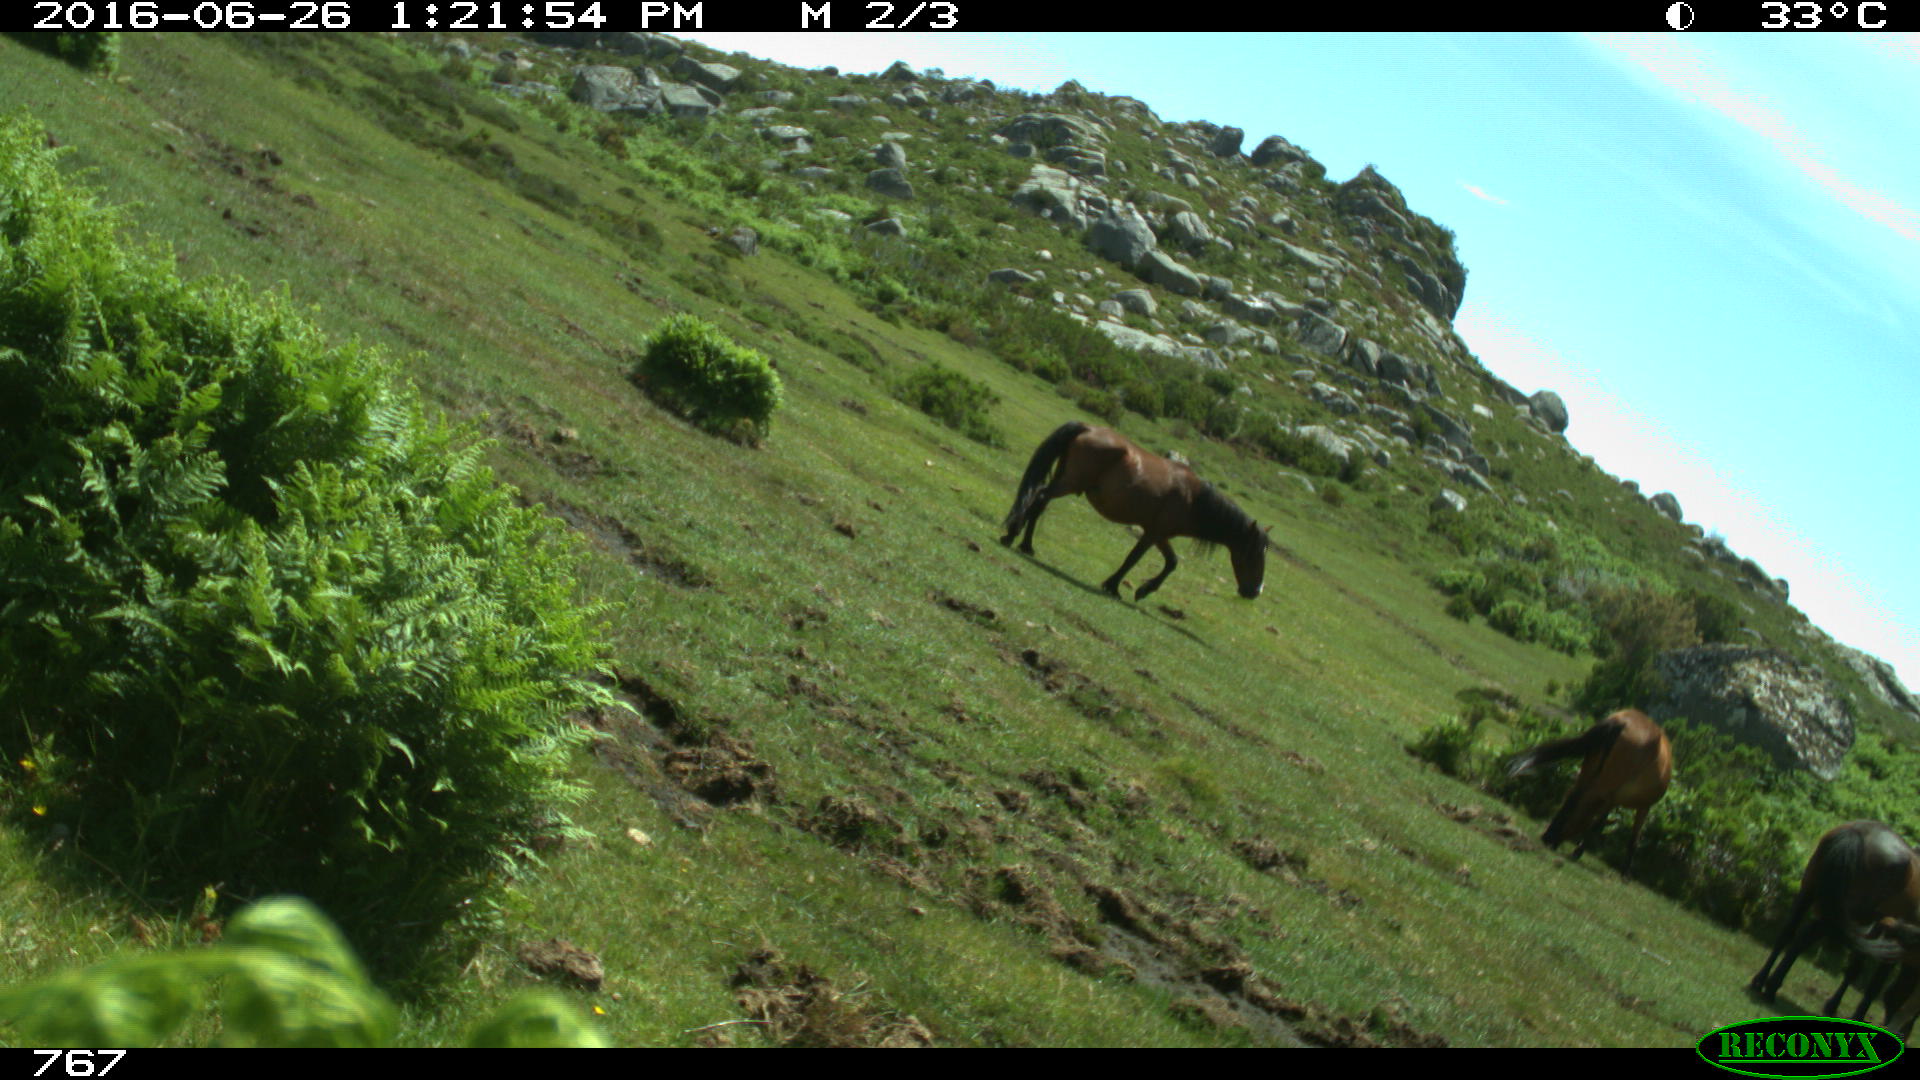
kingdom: Animalia
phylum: Chordata
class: Mammalia
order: Perissodactyla
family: Equidae
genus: Equus
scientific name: Equus caballus
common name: Horse
